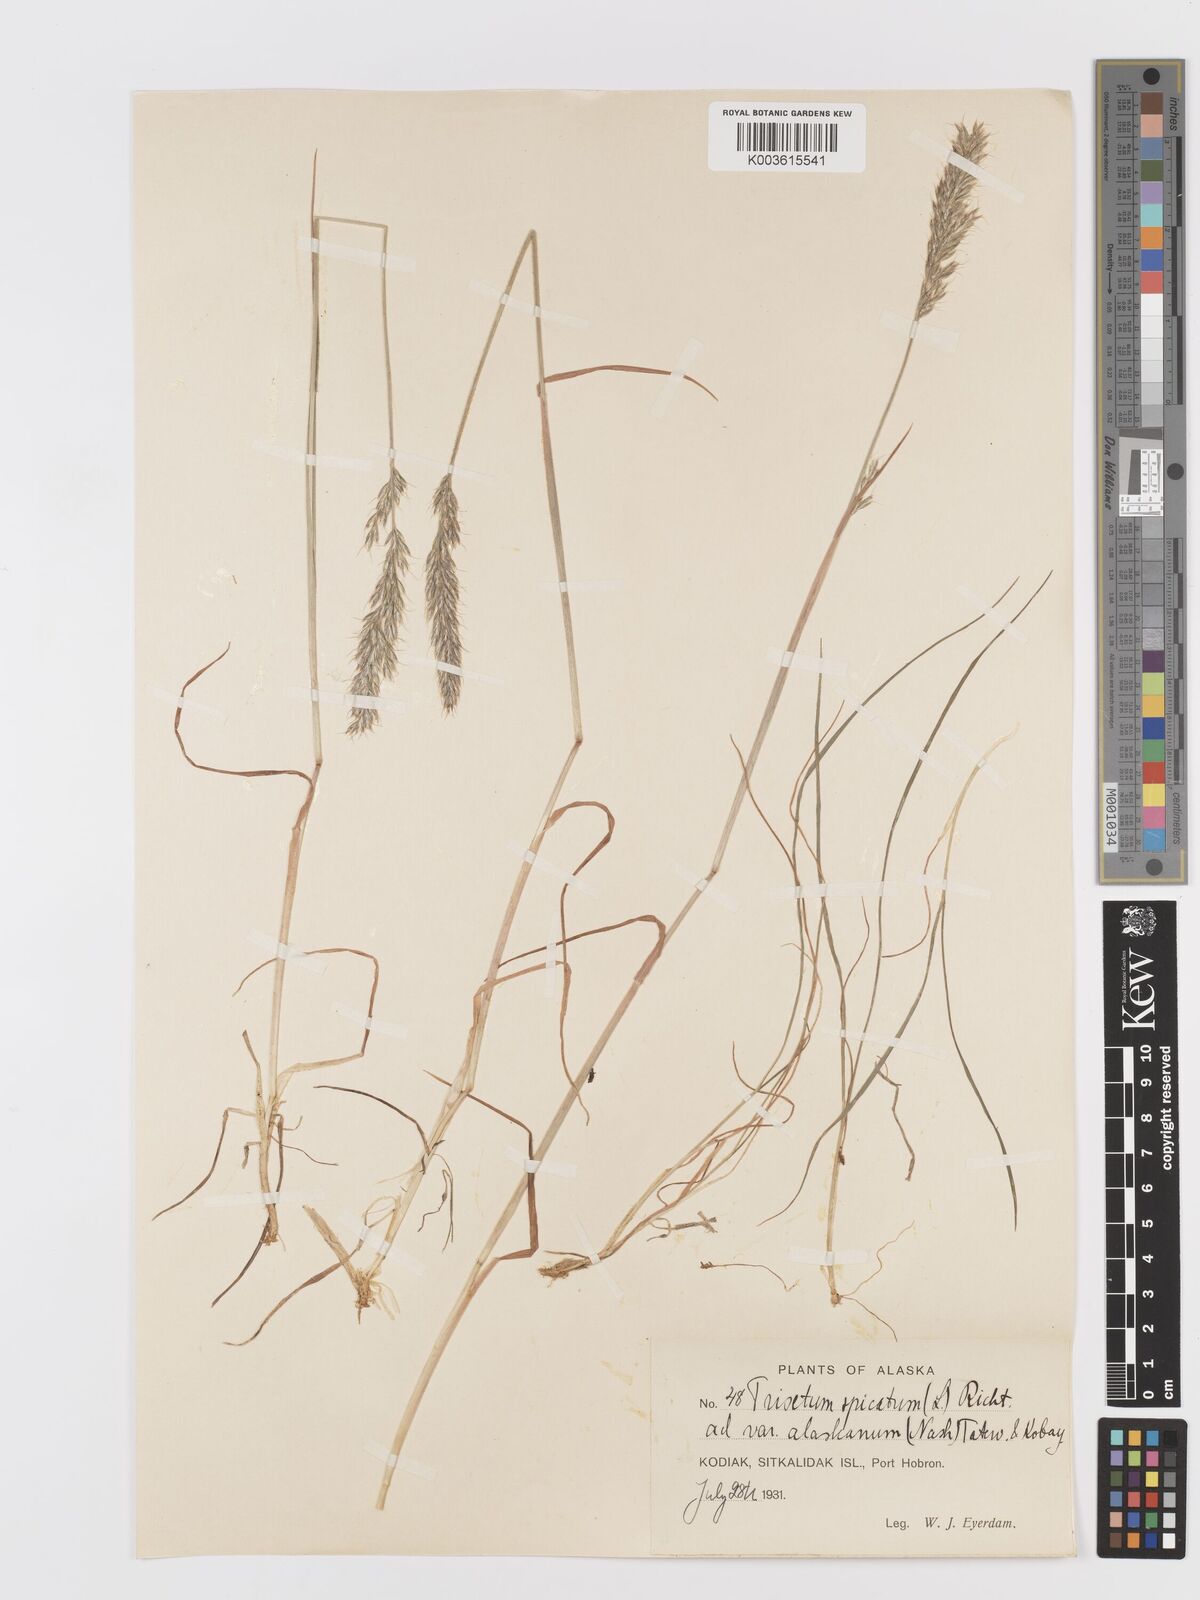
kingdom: Plantae
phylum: Tracheophyta
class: Liliopsida
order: Poales
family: Poaceae
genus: Koeleria
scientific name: Koeleria spicata
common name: Mountain trisetum
